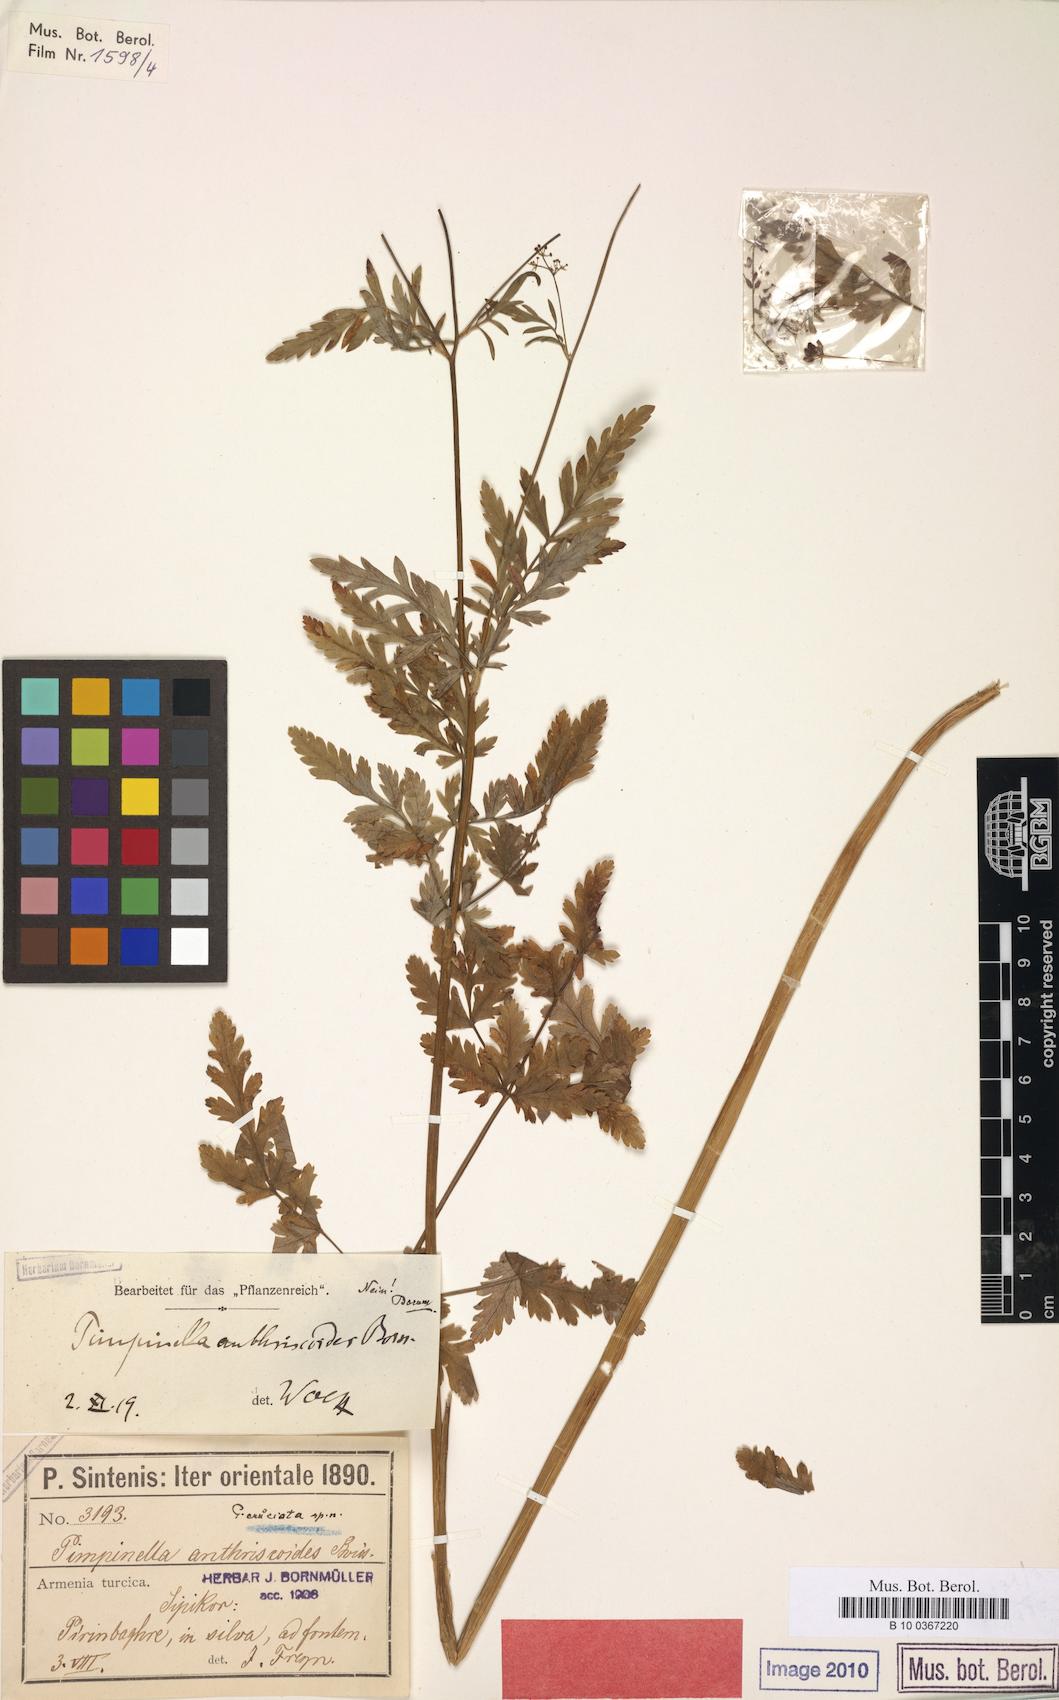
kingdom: Plantae
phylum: Tracheophyta
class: Magnoliopsida
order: Apiales
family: Apiaceae
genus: Tamamschjanella
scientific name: Tamamschjanella cruciata
